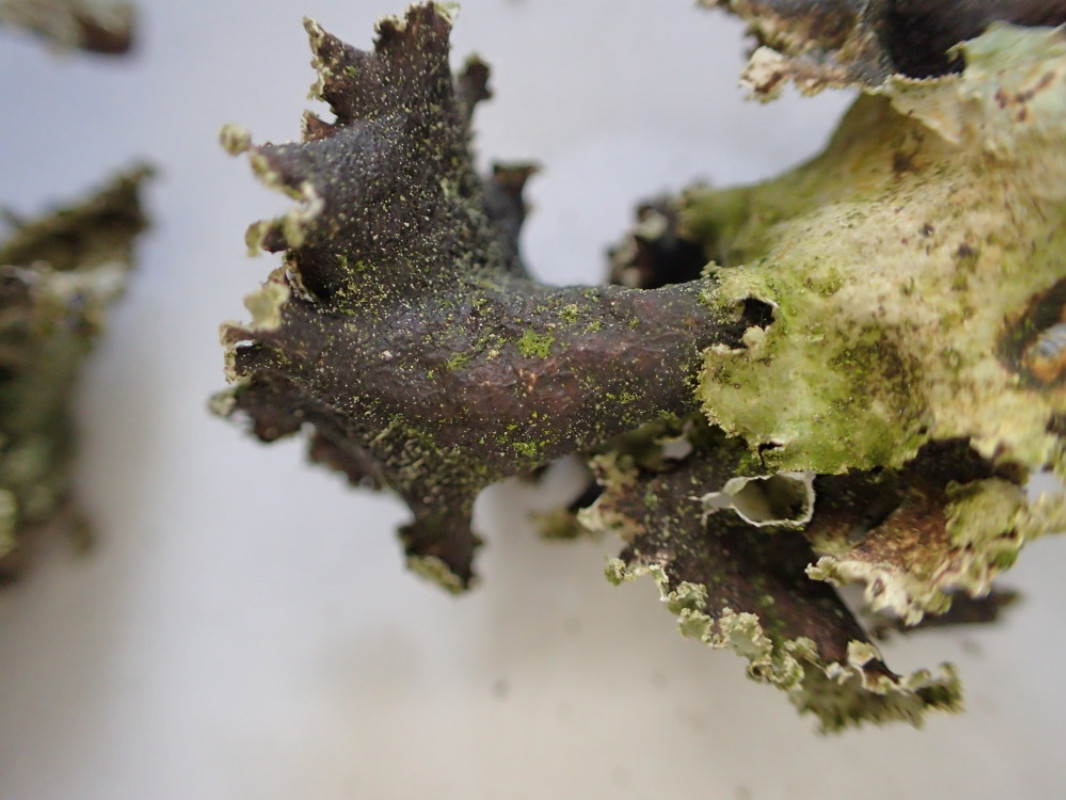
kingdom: Fungi
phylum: Ascomycota
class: Lecanoromycetes
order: Lecanorales
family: Parmeliaceae
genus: Platismatia
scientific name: Platismatia glauca
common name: blågrå papirlav
